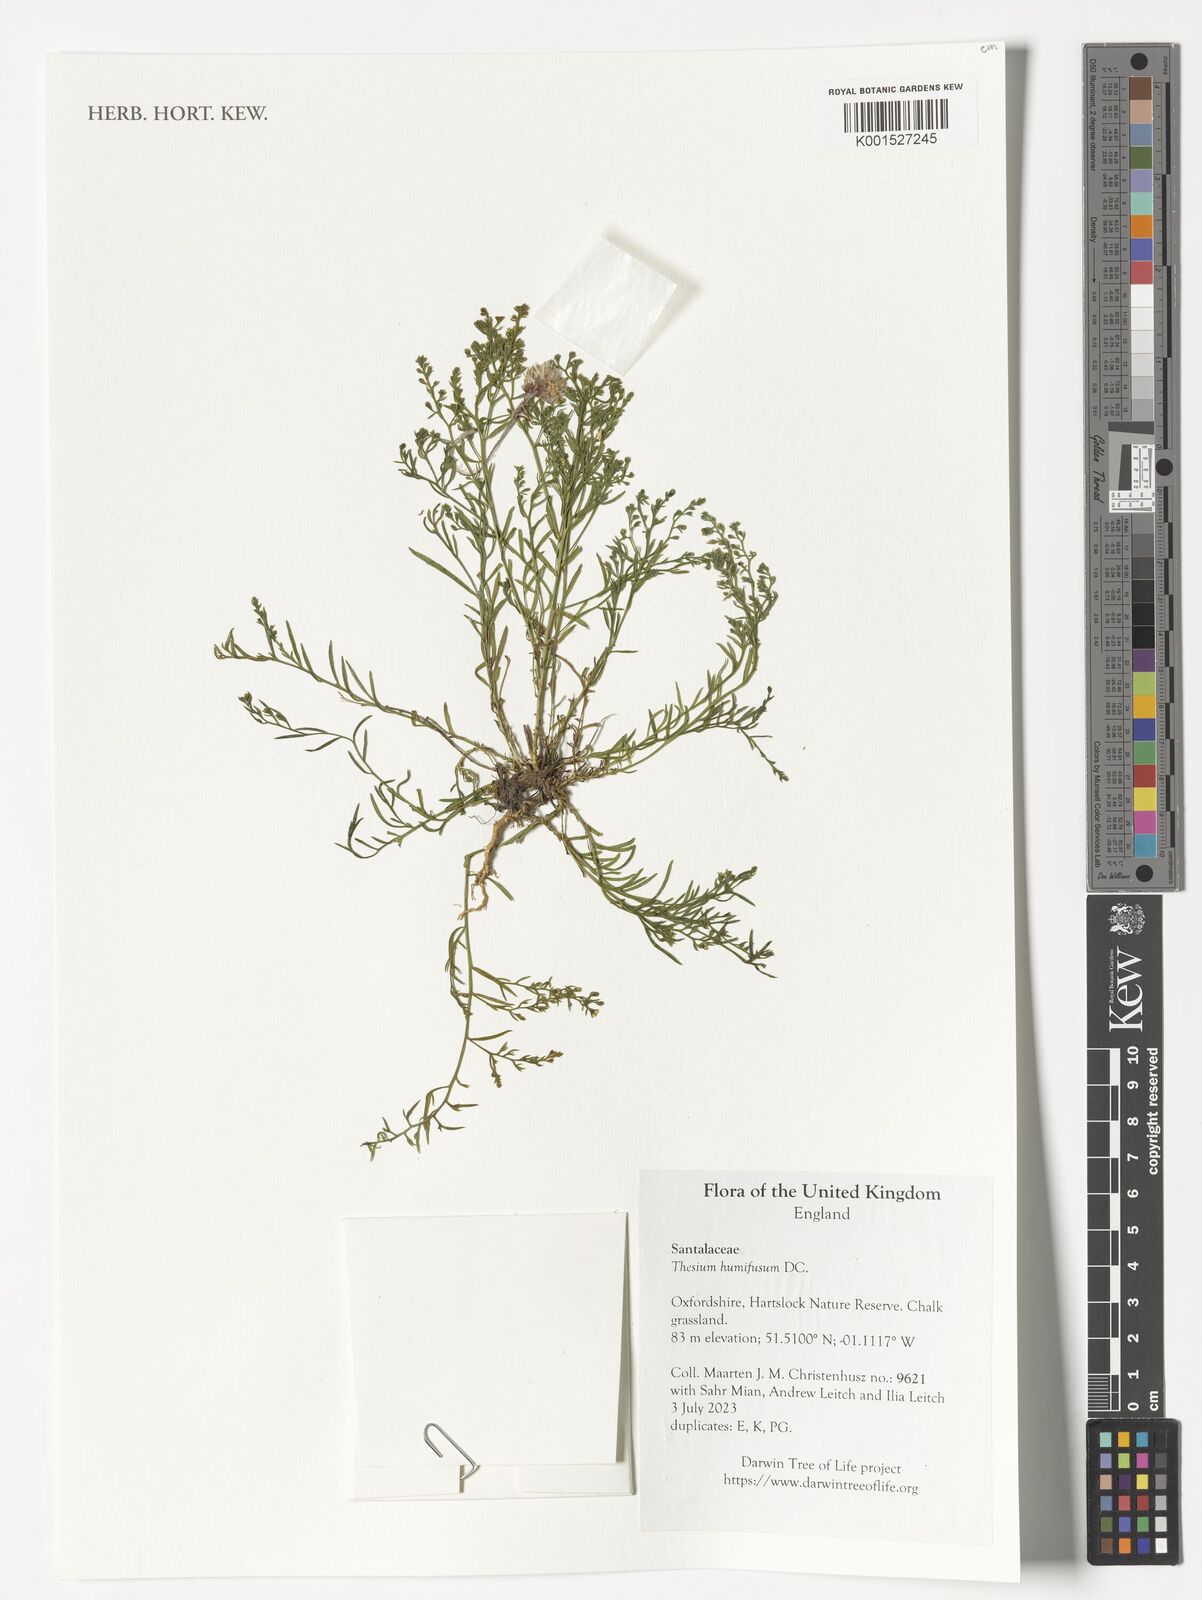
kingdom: Plantae
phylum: Tracheophyta
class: Magnoliopsida
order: Santalales
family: Thesiaceae
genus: Thesium
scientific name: Thesium humifusum
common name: Bastard-toadflax
